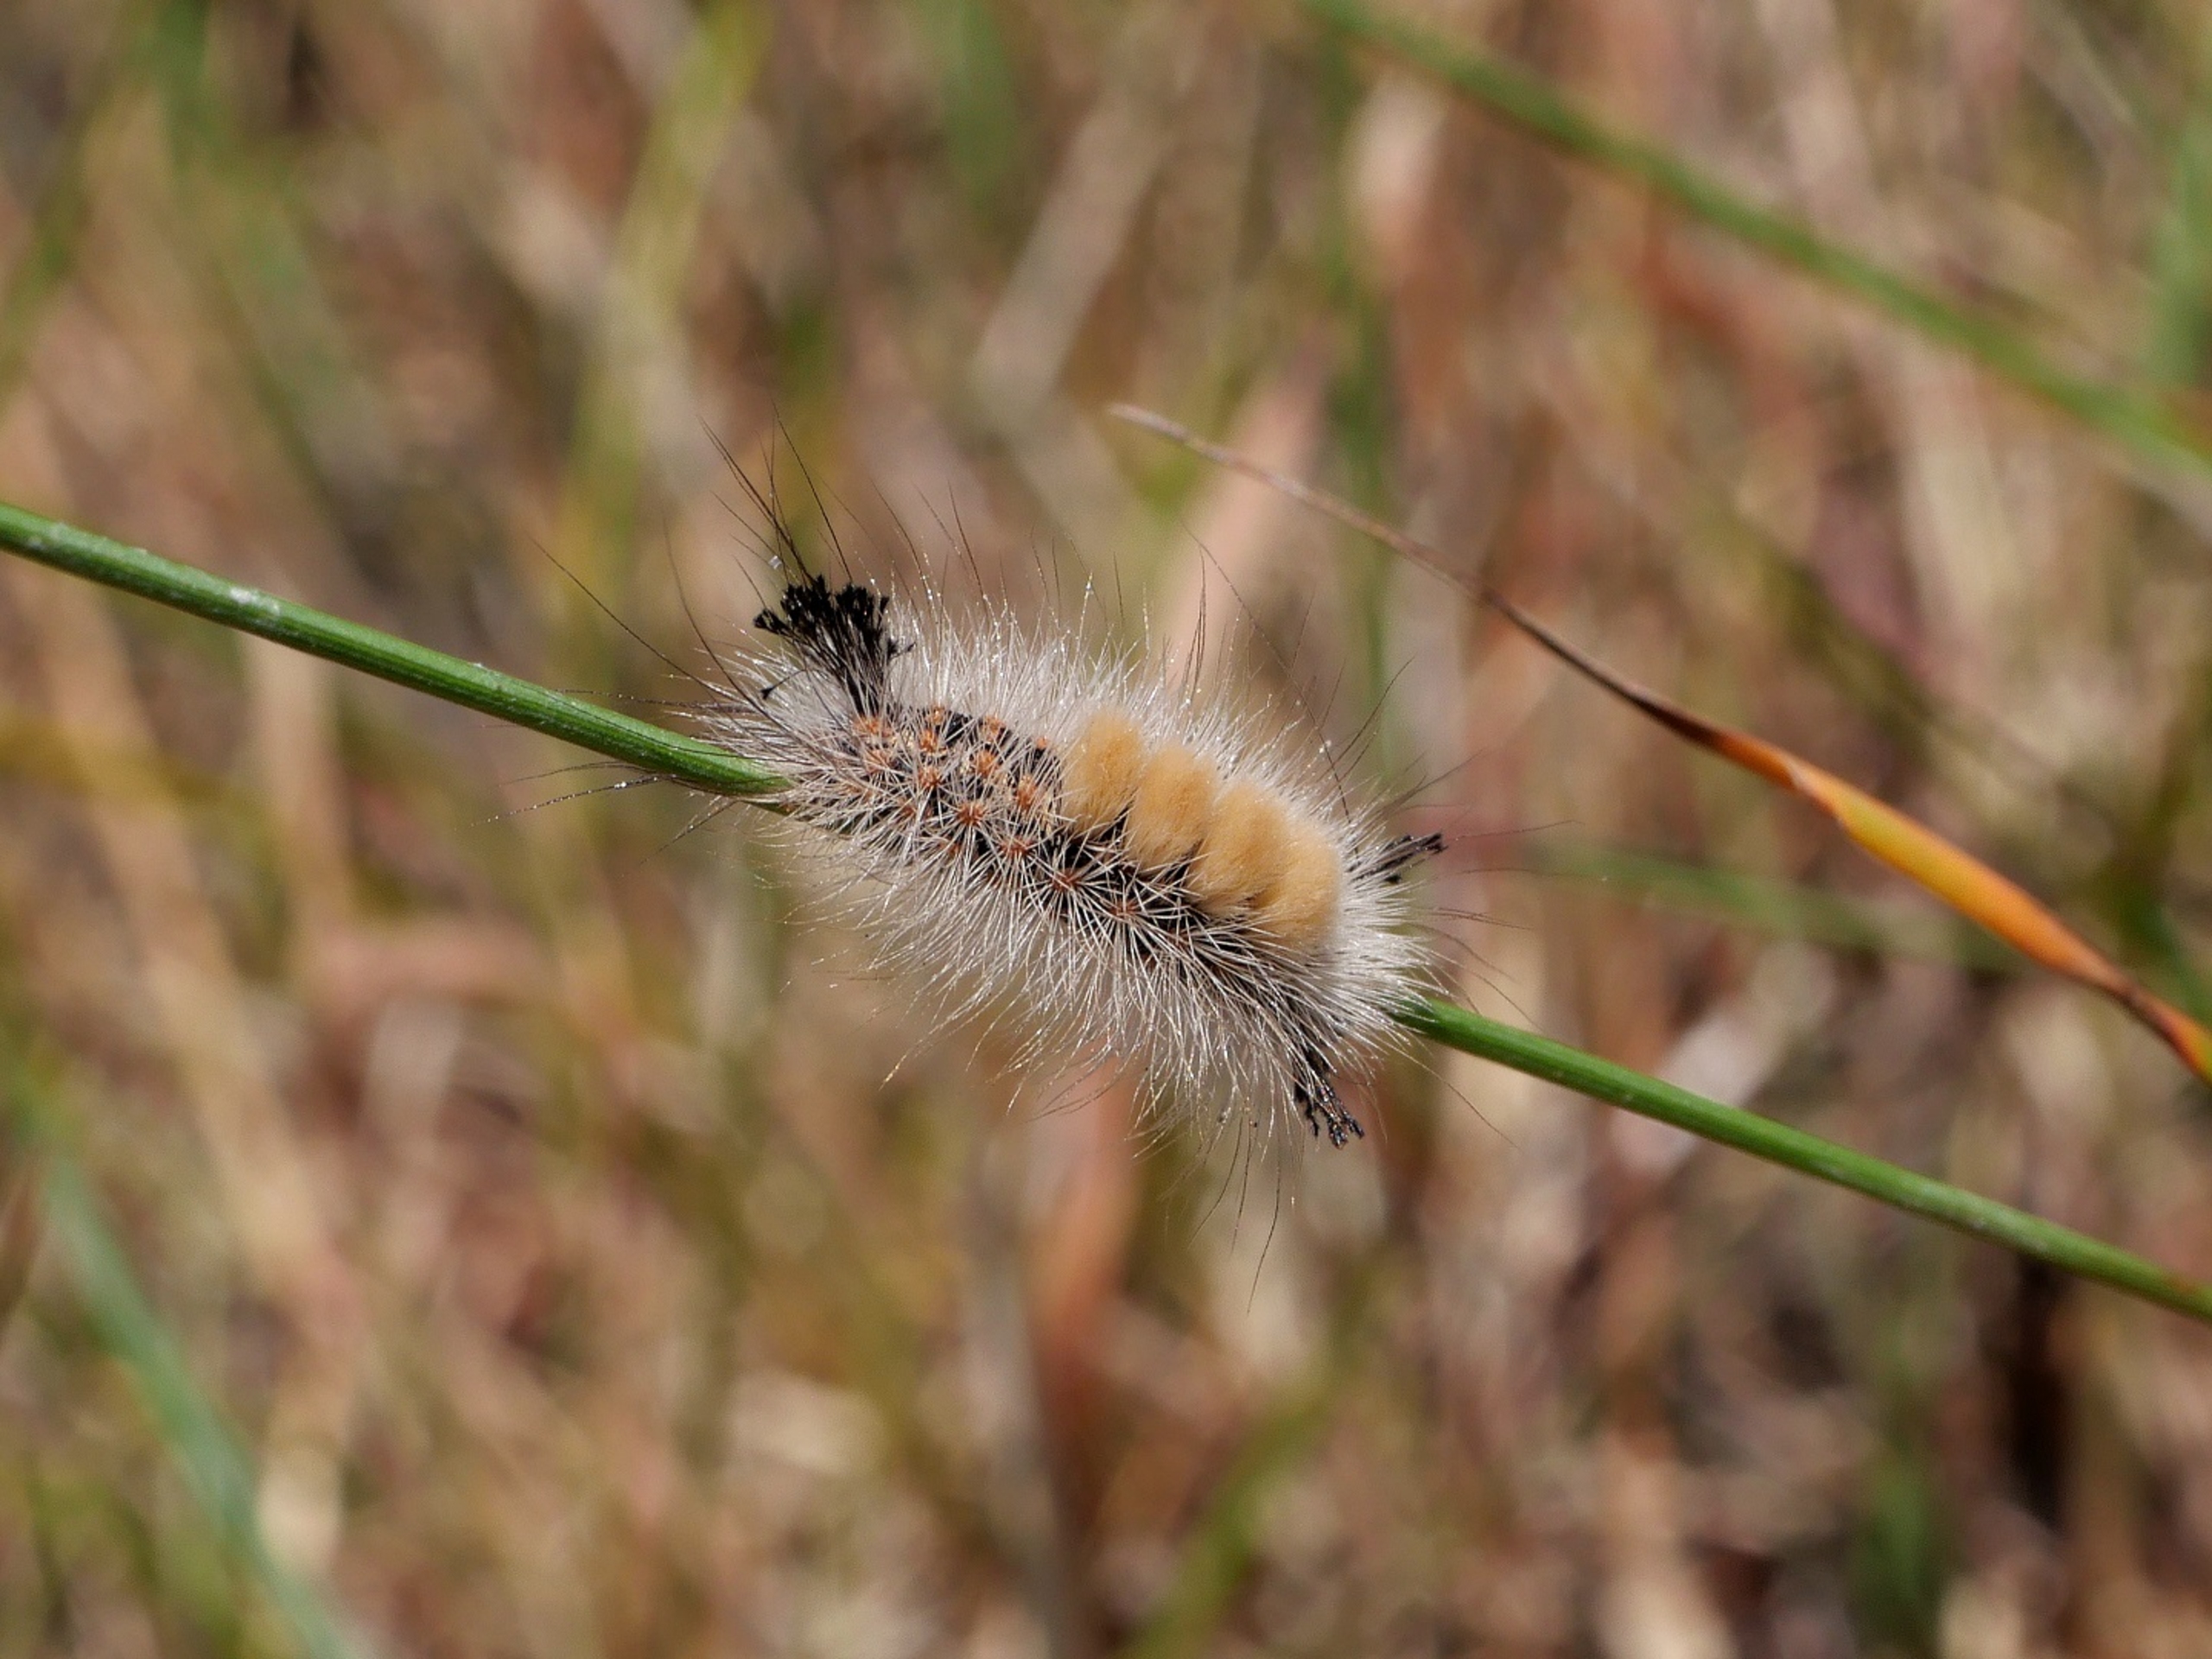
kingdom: Animalia
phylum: Arthropoda
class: Insecta
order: Lepidoptera
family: Erebidae
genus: Orgyia
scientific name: Orgyia antiqua
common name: Lille penselspinder
